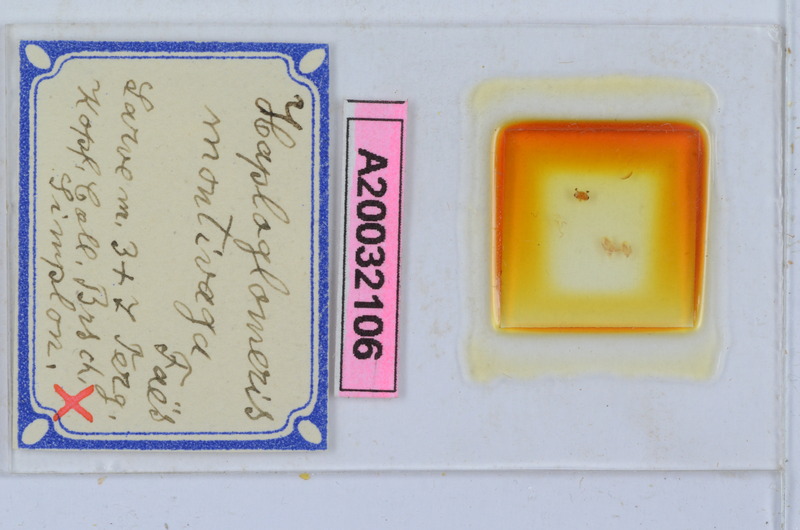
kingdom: Animalia
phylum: Arthropoda
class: Diplopoda
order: Glomerida
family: Glomeridae
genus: Simplomeris
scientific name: Simplomeris montivaga
